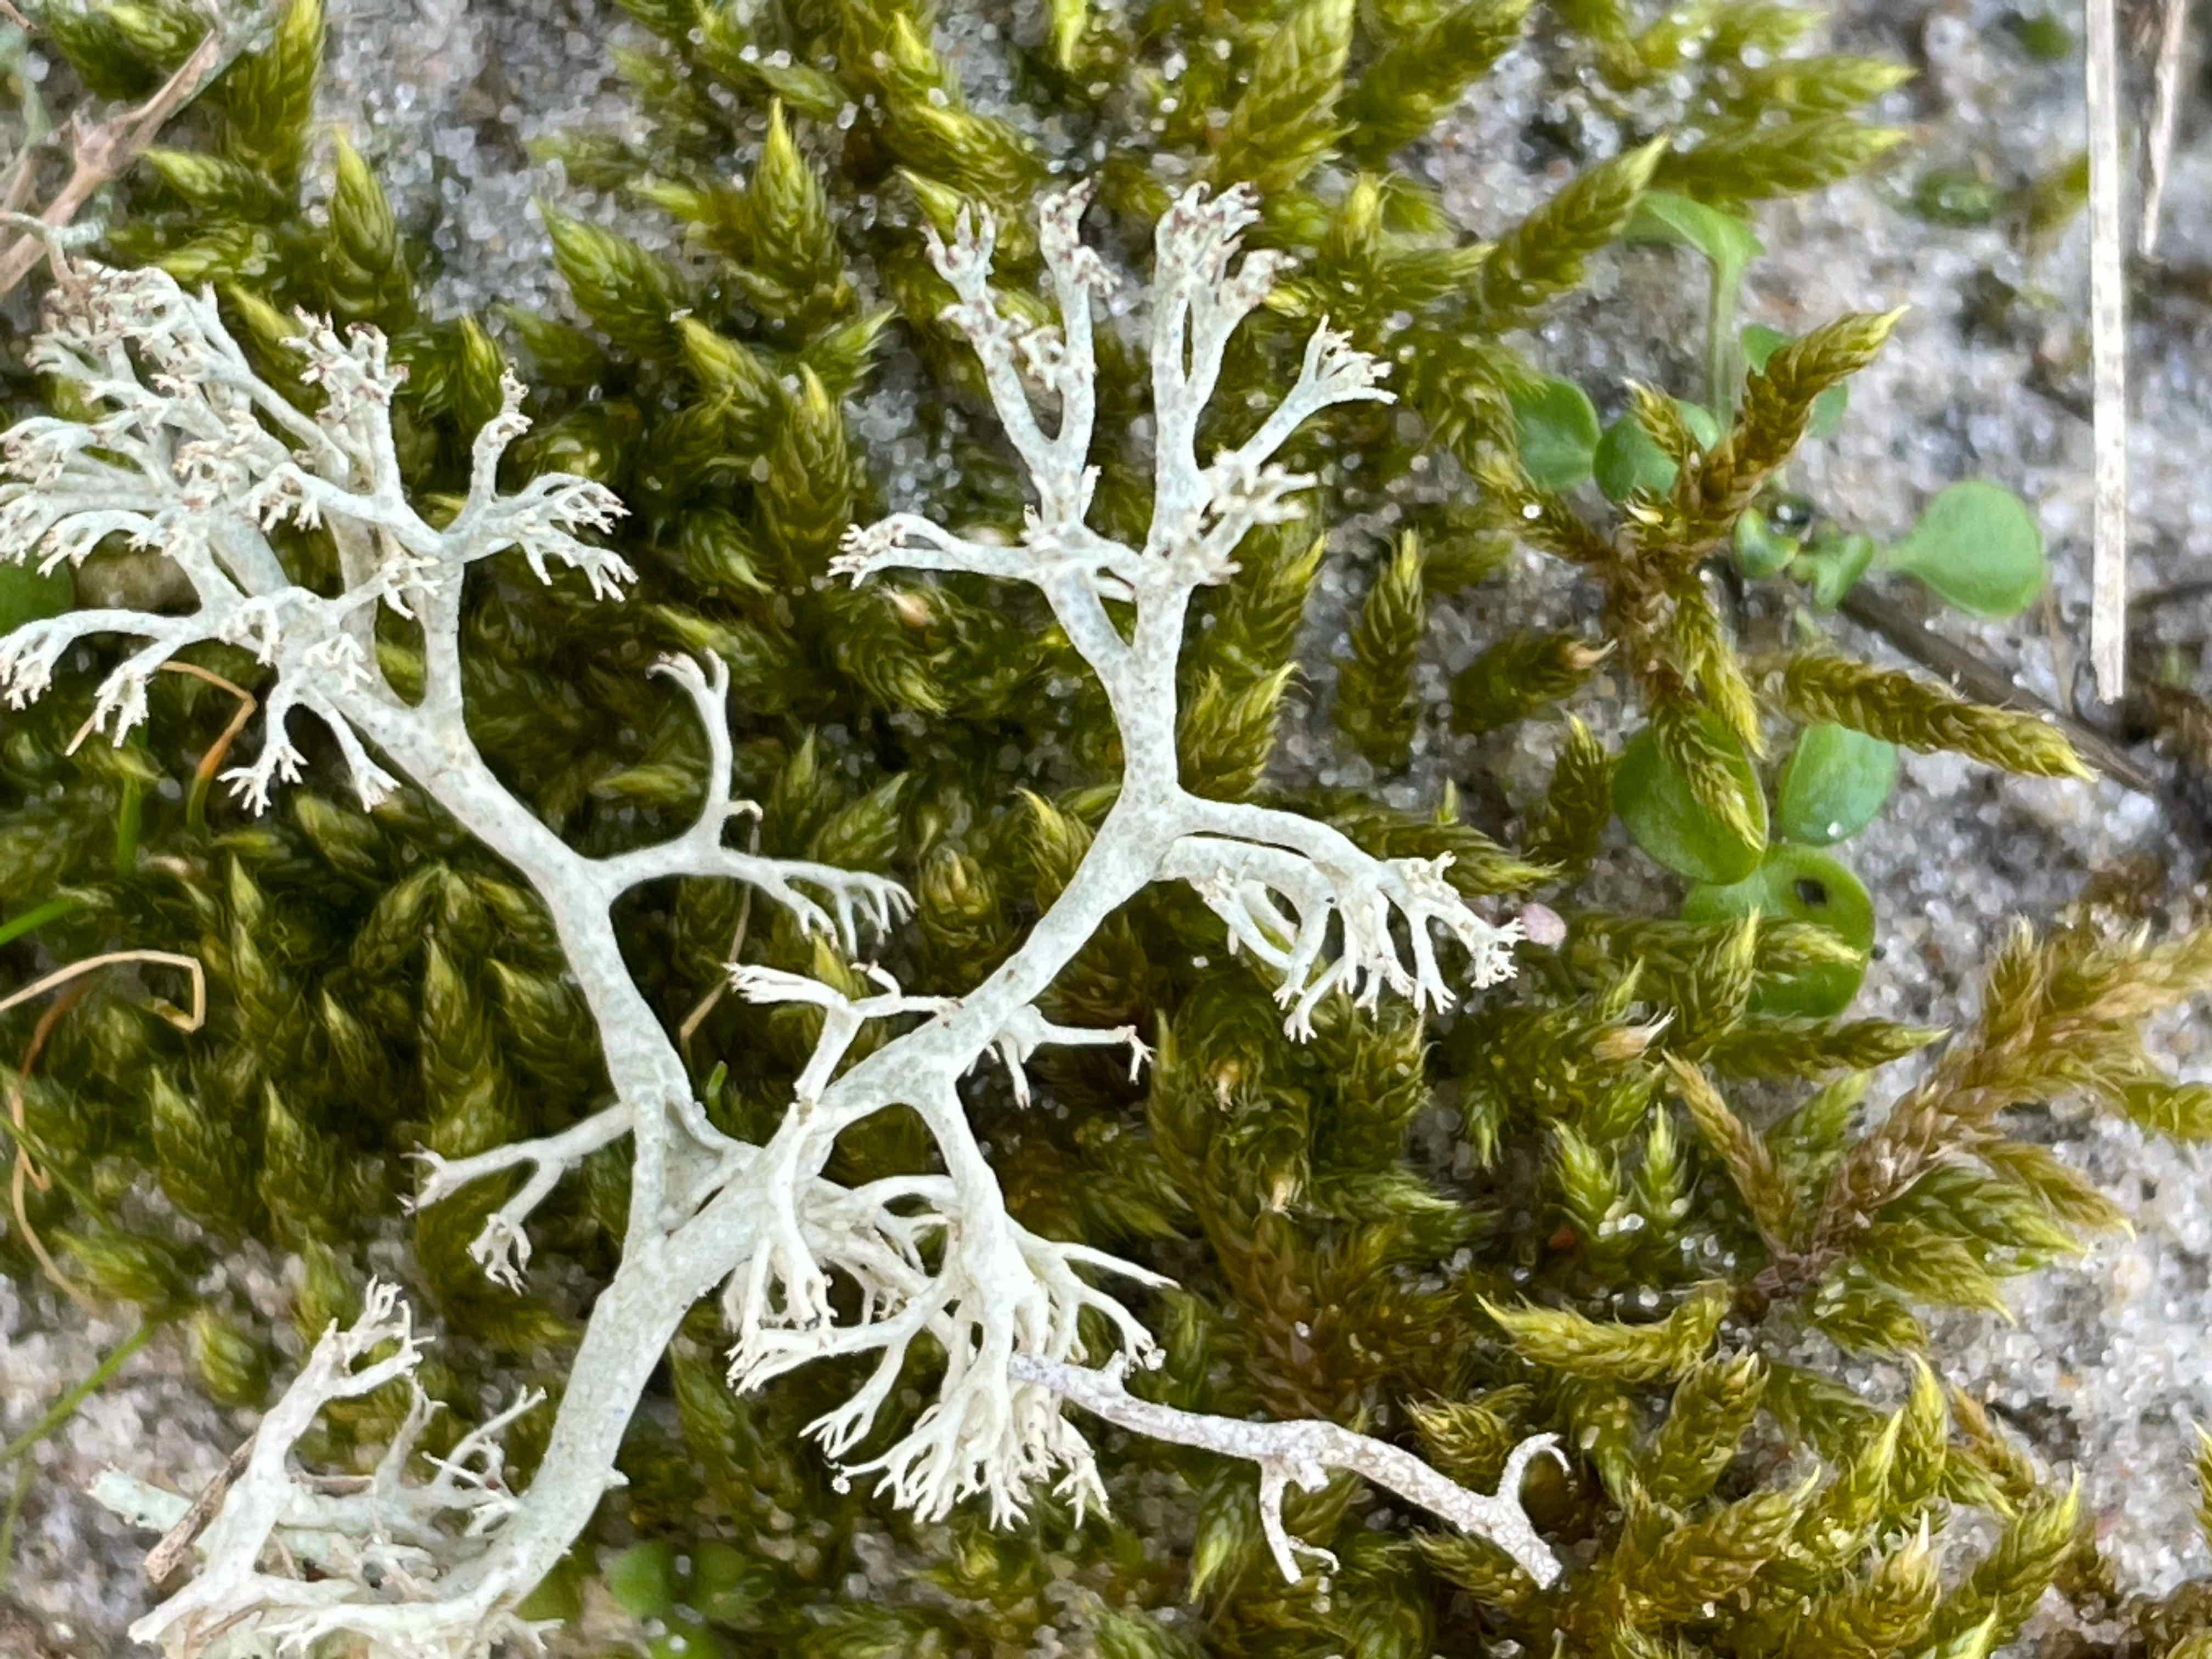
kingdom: Fungi
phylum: Ascomycota
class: Lecanoromycetes
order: Lecanorales
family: Cladoniaceae
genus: Cladonia
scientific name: Cladonia
